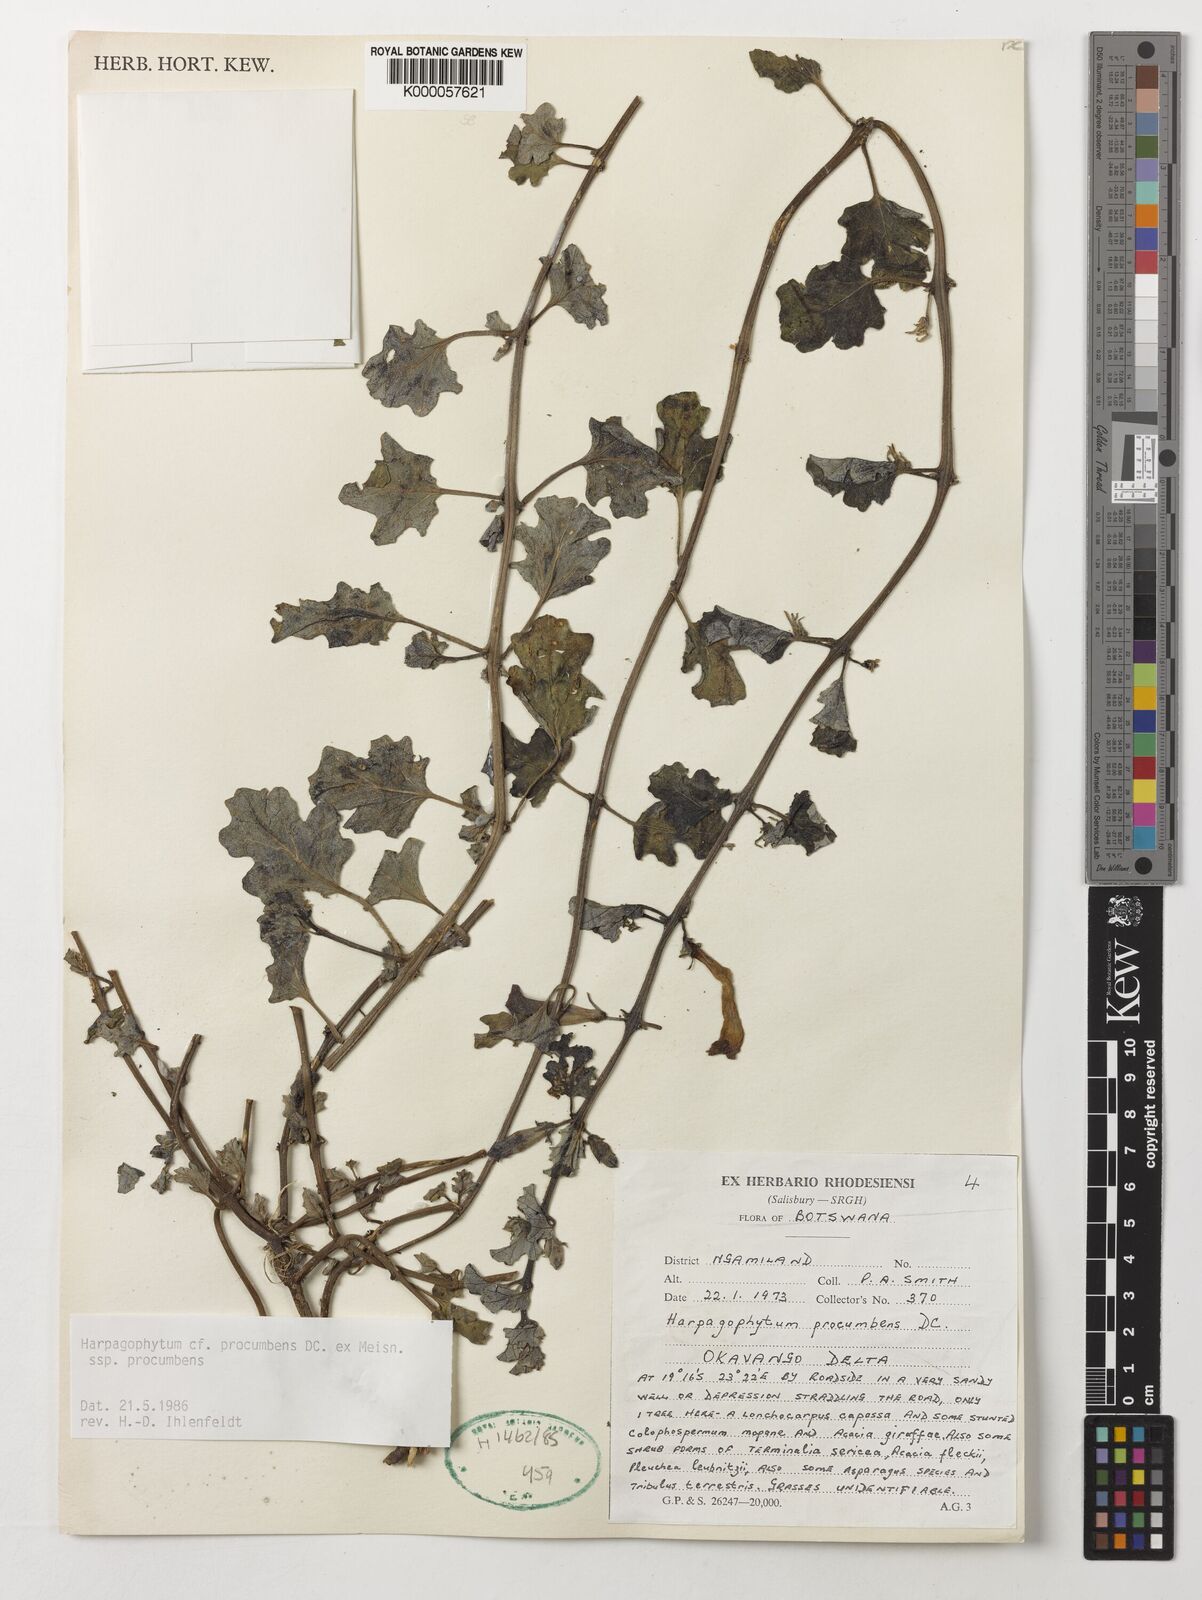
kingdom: Plantae
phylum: Tracheophyta
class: Magnoliopsida
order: Lamiales
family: Pedaliaceae
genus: Harpagophytum
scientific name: Harpagophytum procumbens
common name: Grappleplant
